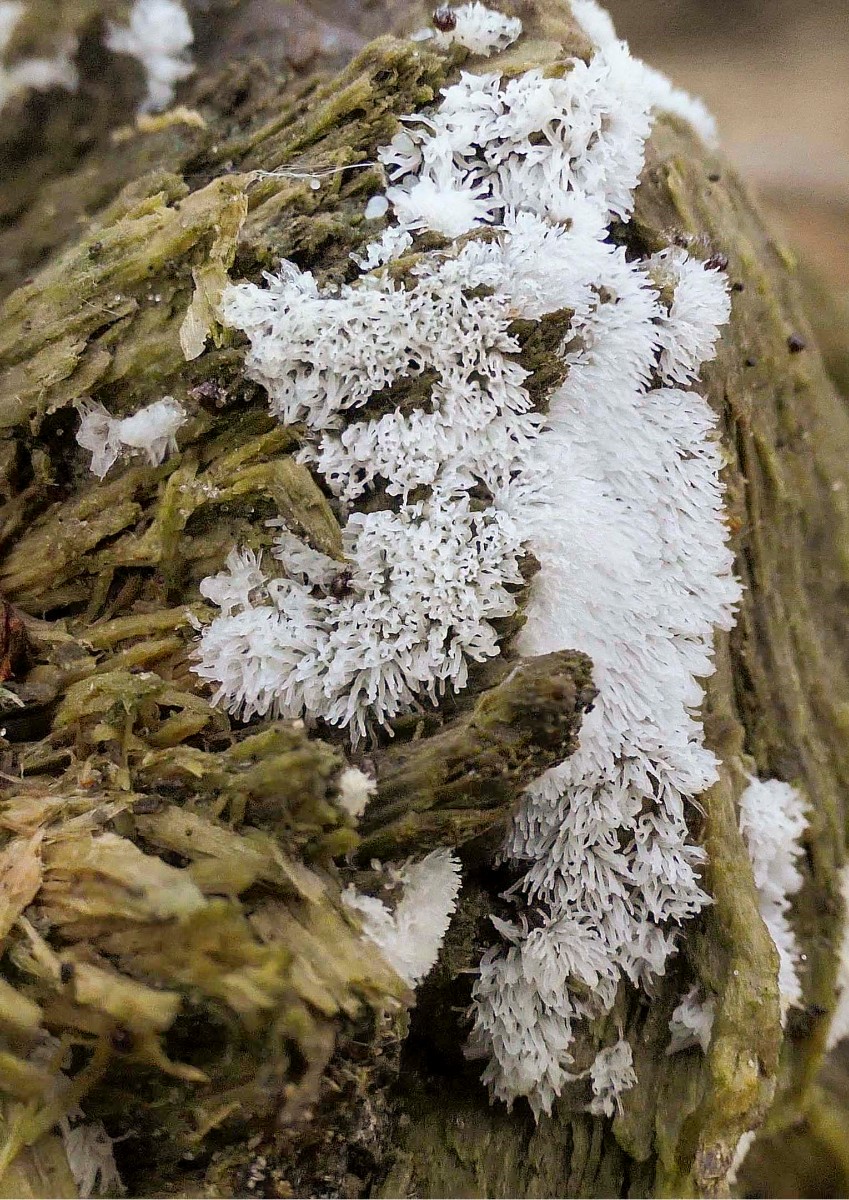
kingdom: Protozoa
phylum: Mycetozoa
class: Protosteliomycetes
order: Ceratiomyxales
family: Ceratiomyxaceae
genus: Ceratiomyxa
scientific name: Ceratiomyxa fruticulosa
